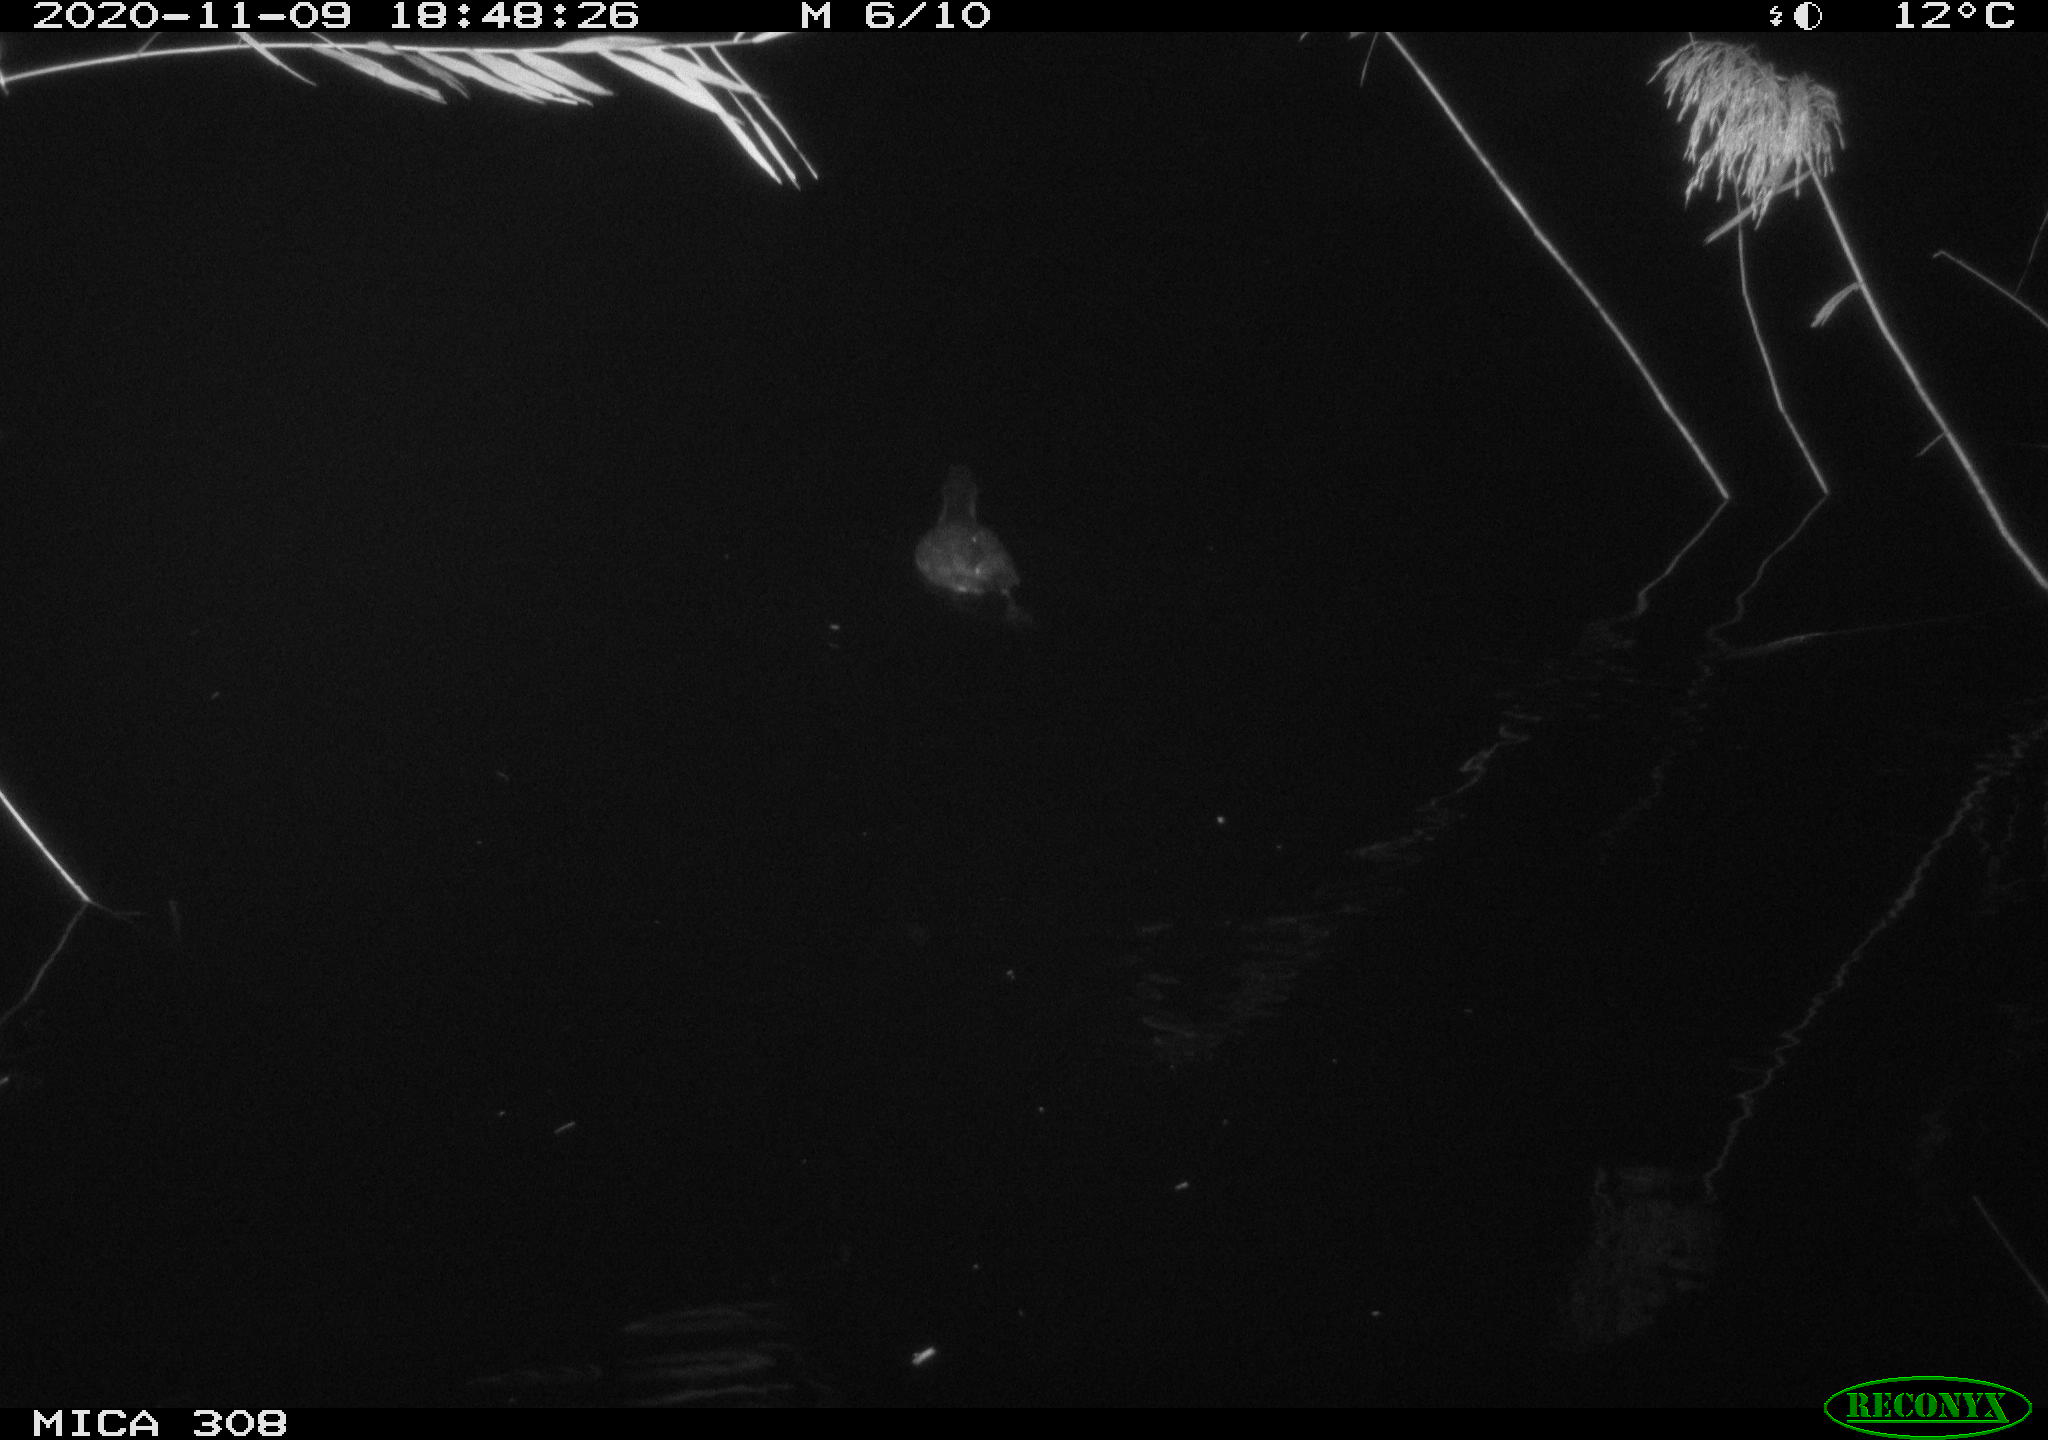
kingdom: Animalia
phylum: Chordata
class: Aves
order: Gruiformes
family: Rallidae
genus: Fulica
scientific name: Fulica atra
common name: Eurasian coot
